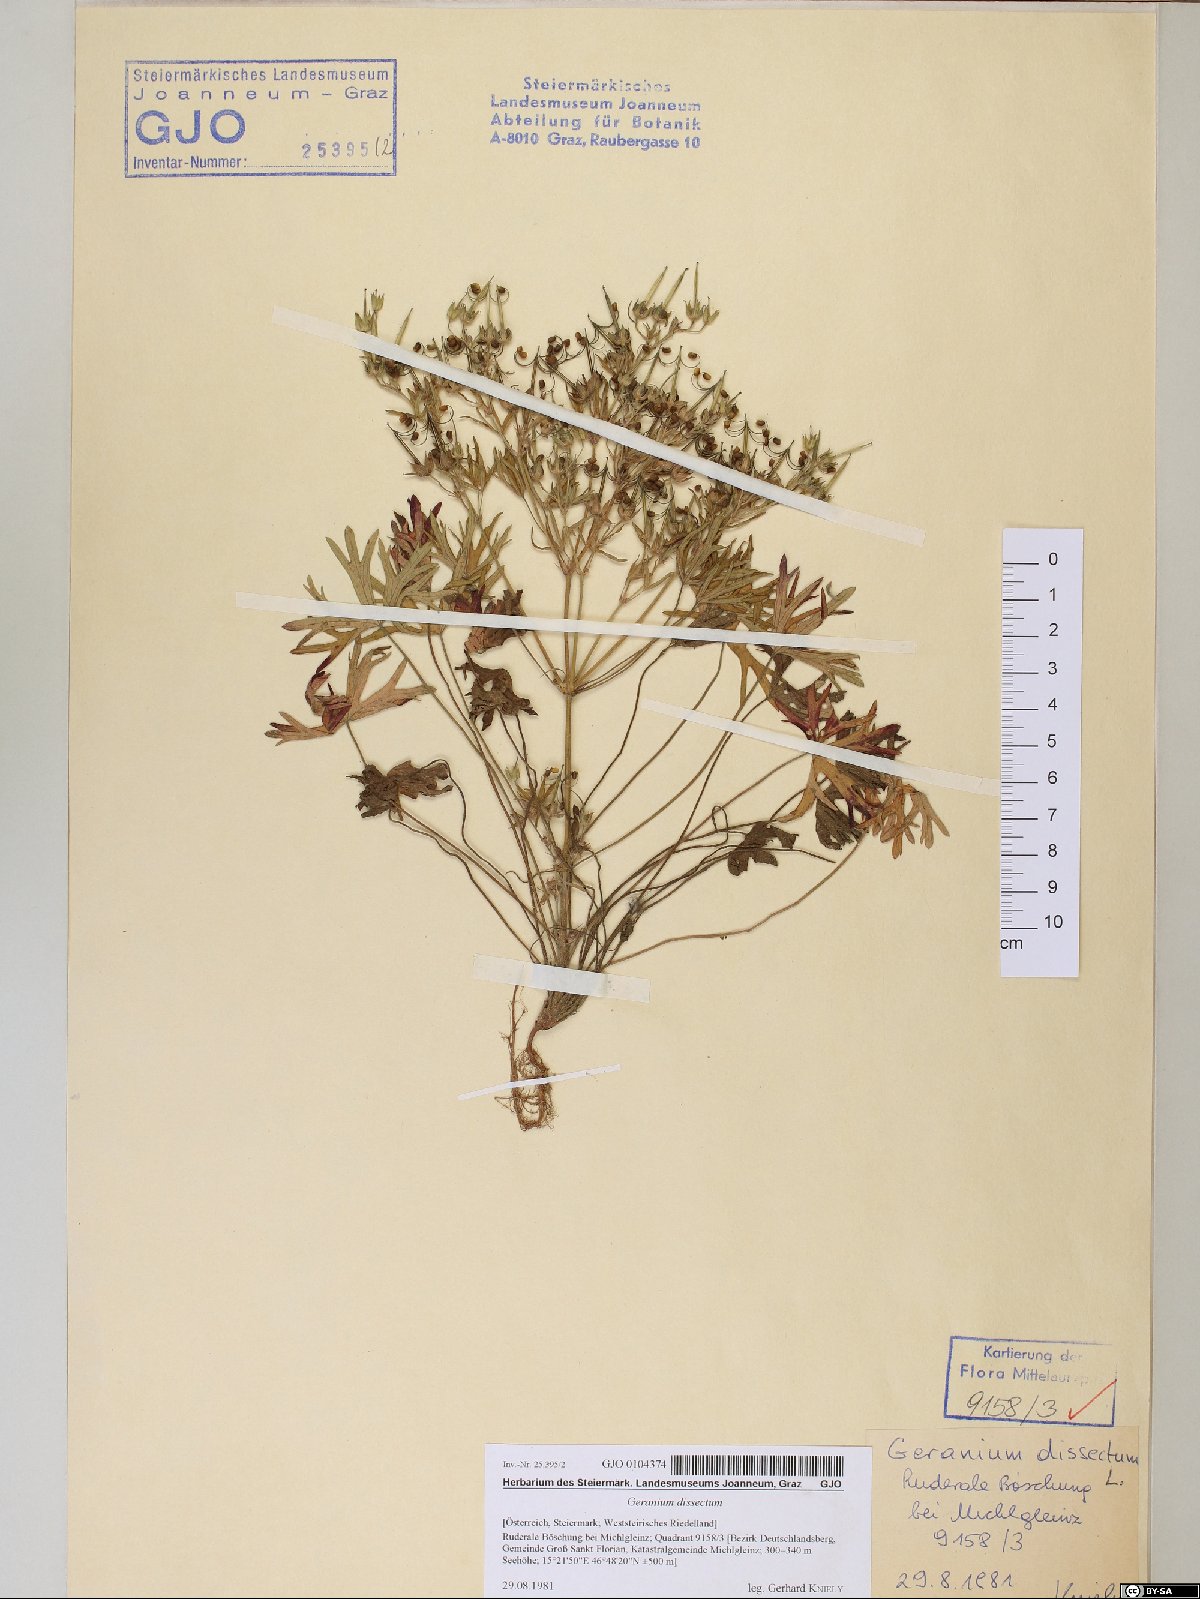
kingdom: Plantae
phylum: Tracheophyta
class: Magnoliopsida
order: Geraniales
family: Geraniaceae
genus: Geranium
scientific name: Geranium dissectum
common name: Cut-leaved crane's-bill
